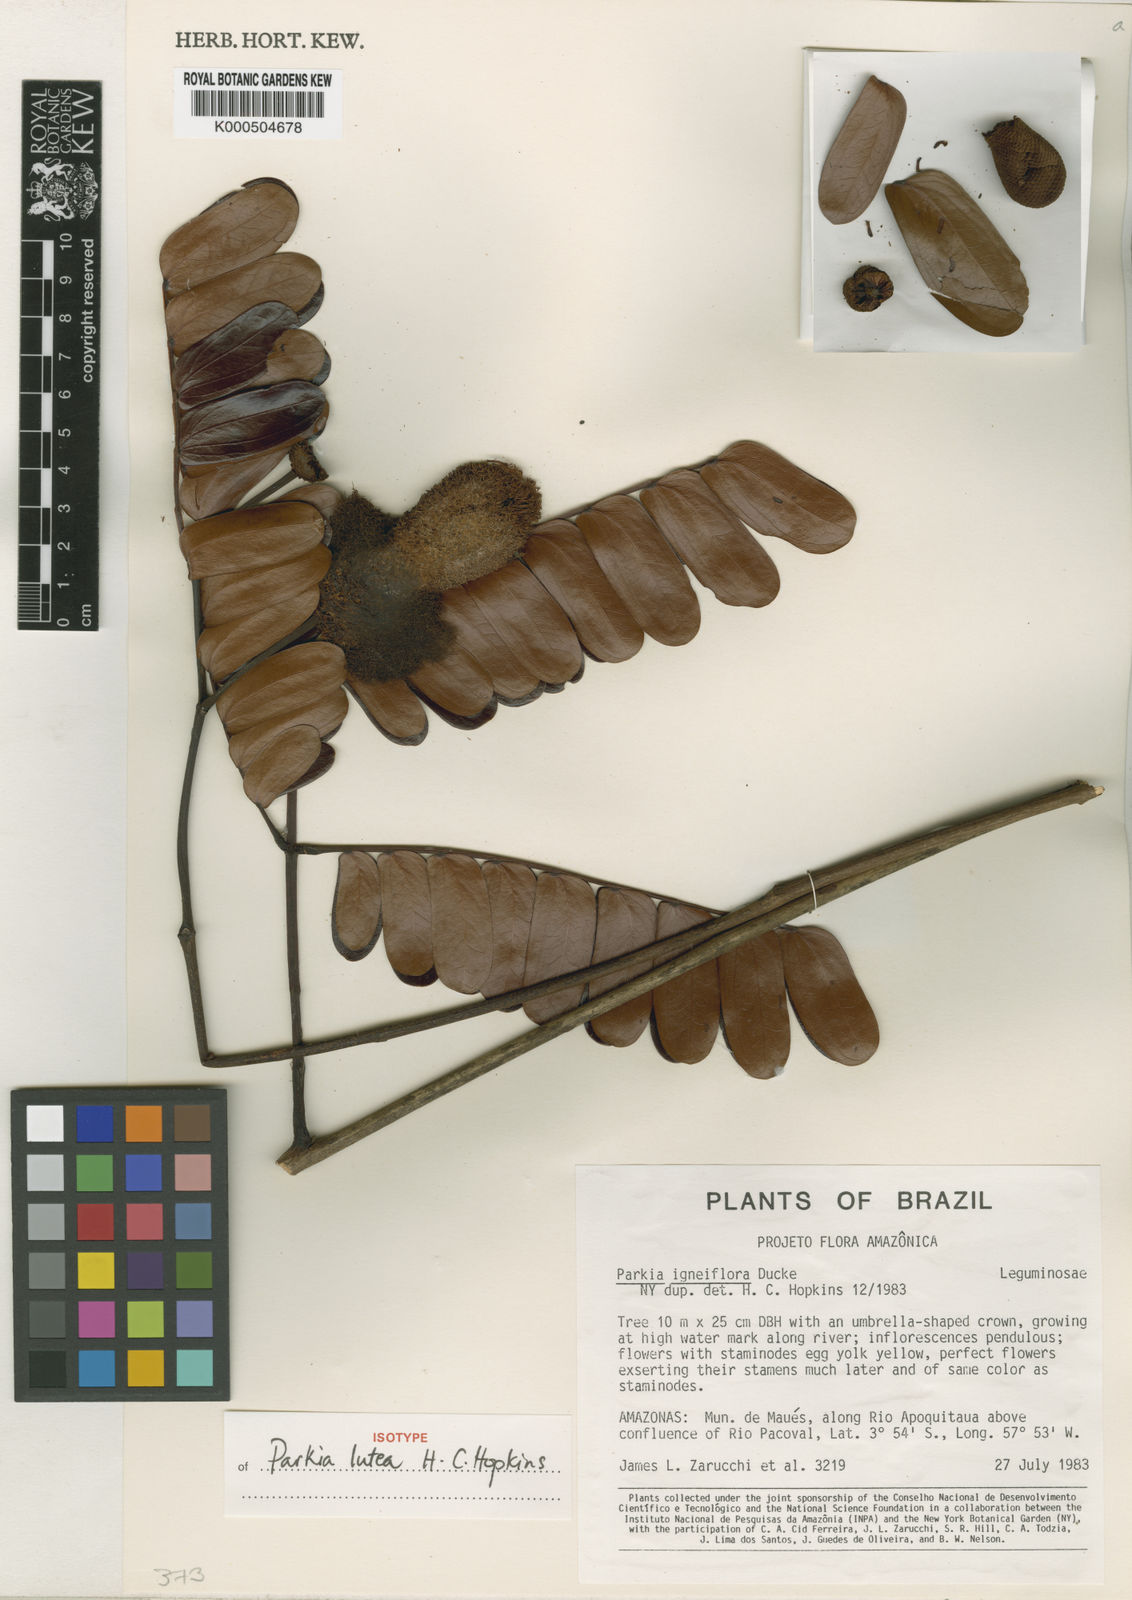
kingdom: Plantae
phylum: Tracheophyta
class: Magnoliopsida
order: Fabales
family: Fabaceae
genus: Parkia
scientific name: Parkia lutea
